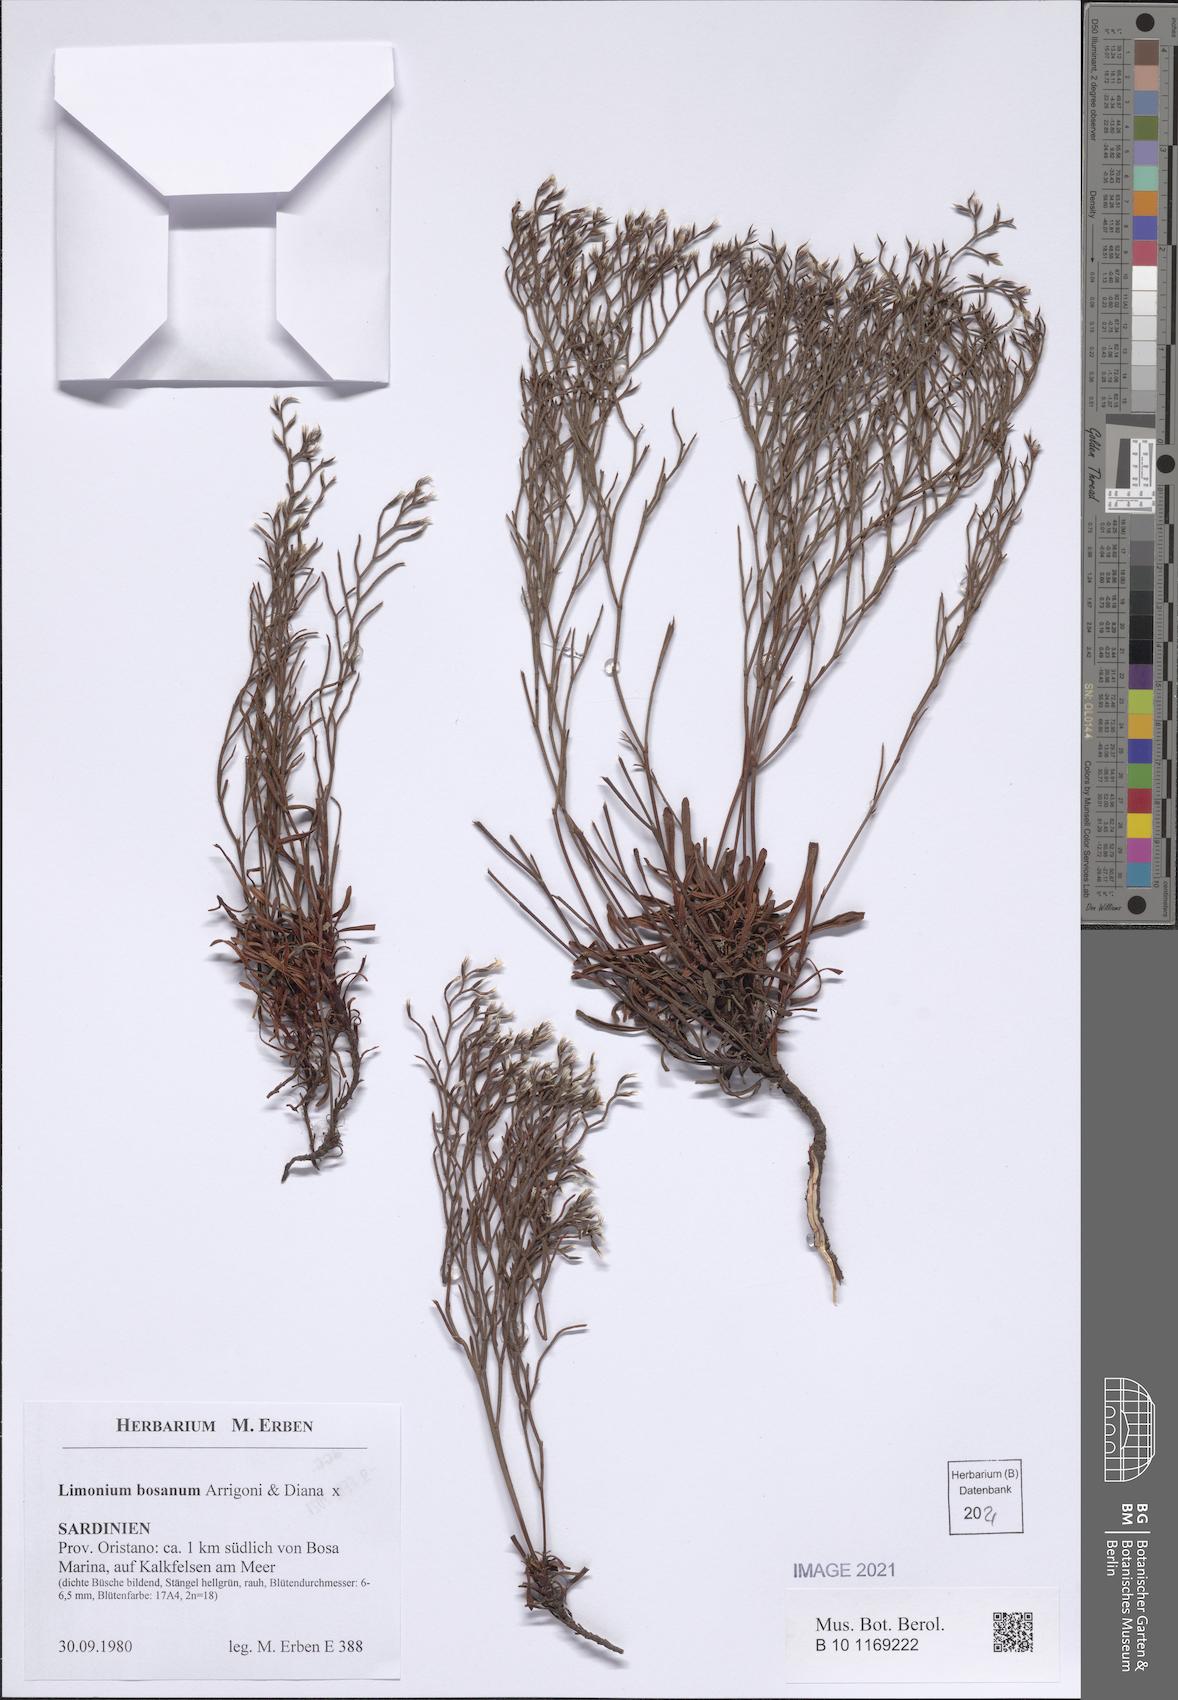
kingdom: Plantae
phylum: Tracheophyta
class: Magnoliopsida
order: Caryophyllales
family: Plumbaginaceae
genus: Limonium
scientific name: Limonium acutifolium
